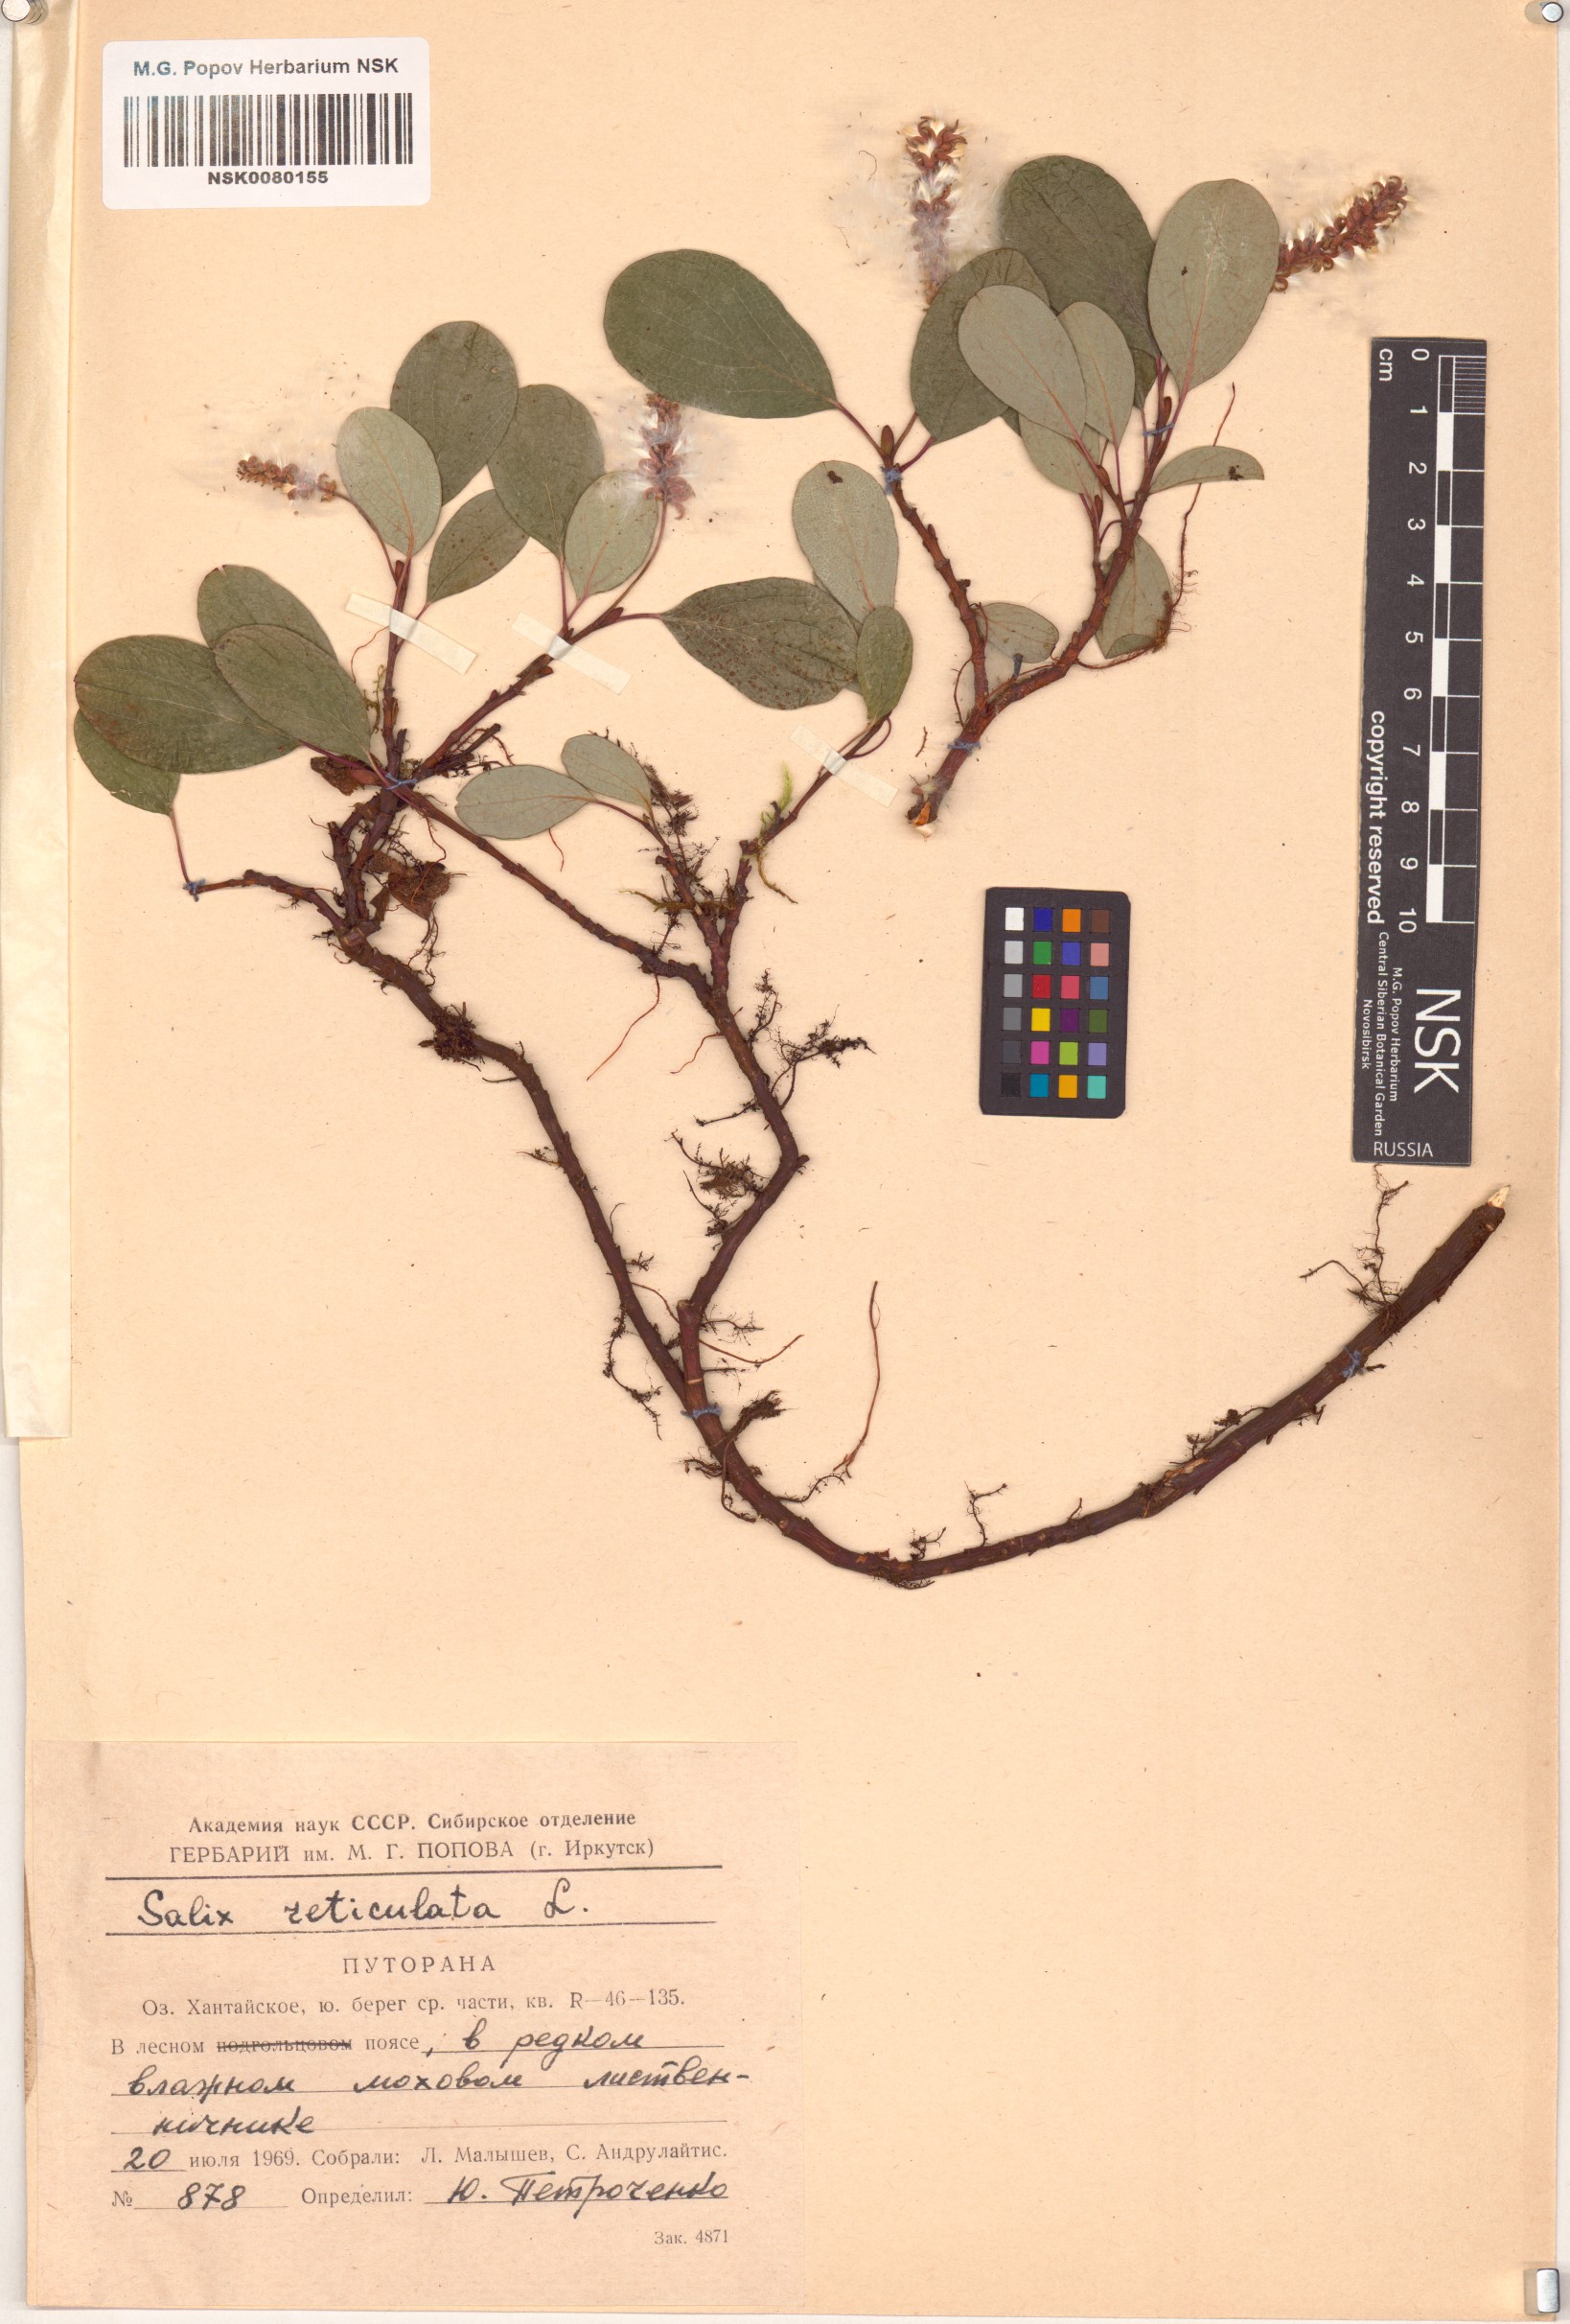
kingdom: Plantae
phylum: Tracheophyta
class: Magnoliopsida
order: Malpighiales
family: Salicaceae
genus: Salix
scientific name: Salix reticulata
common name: Net-leaved willow
